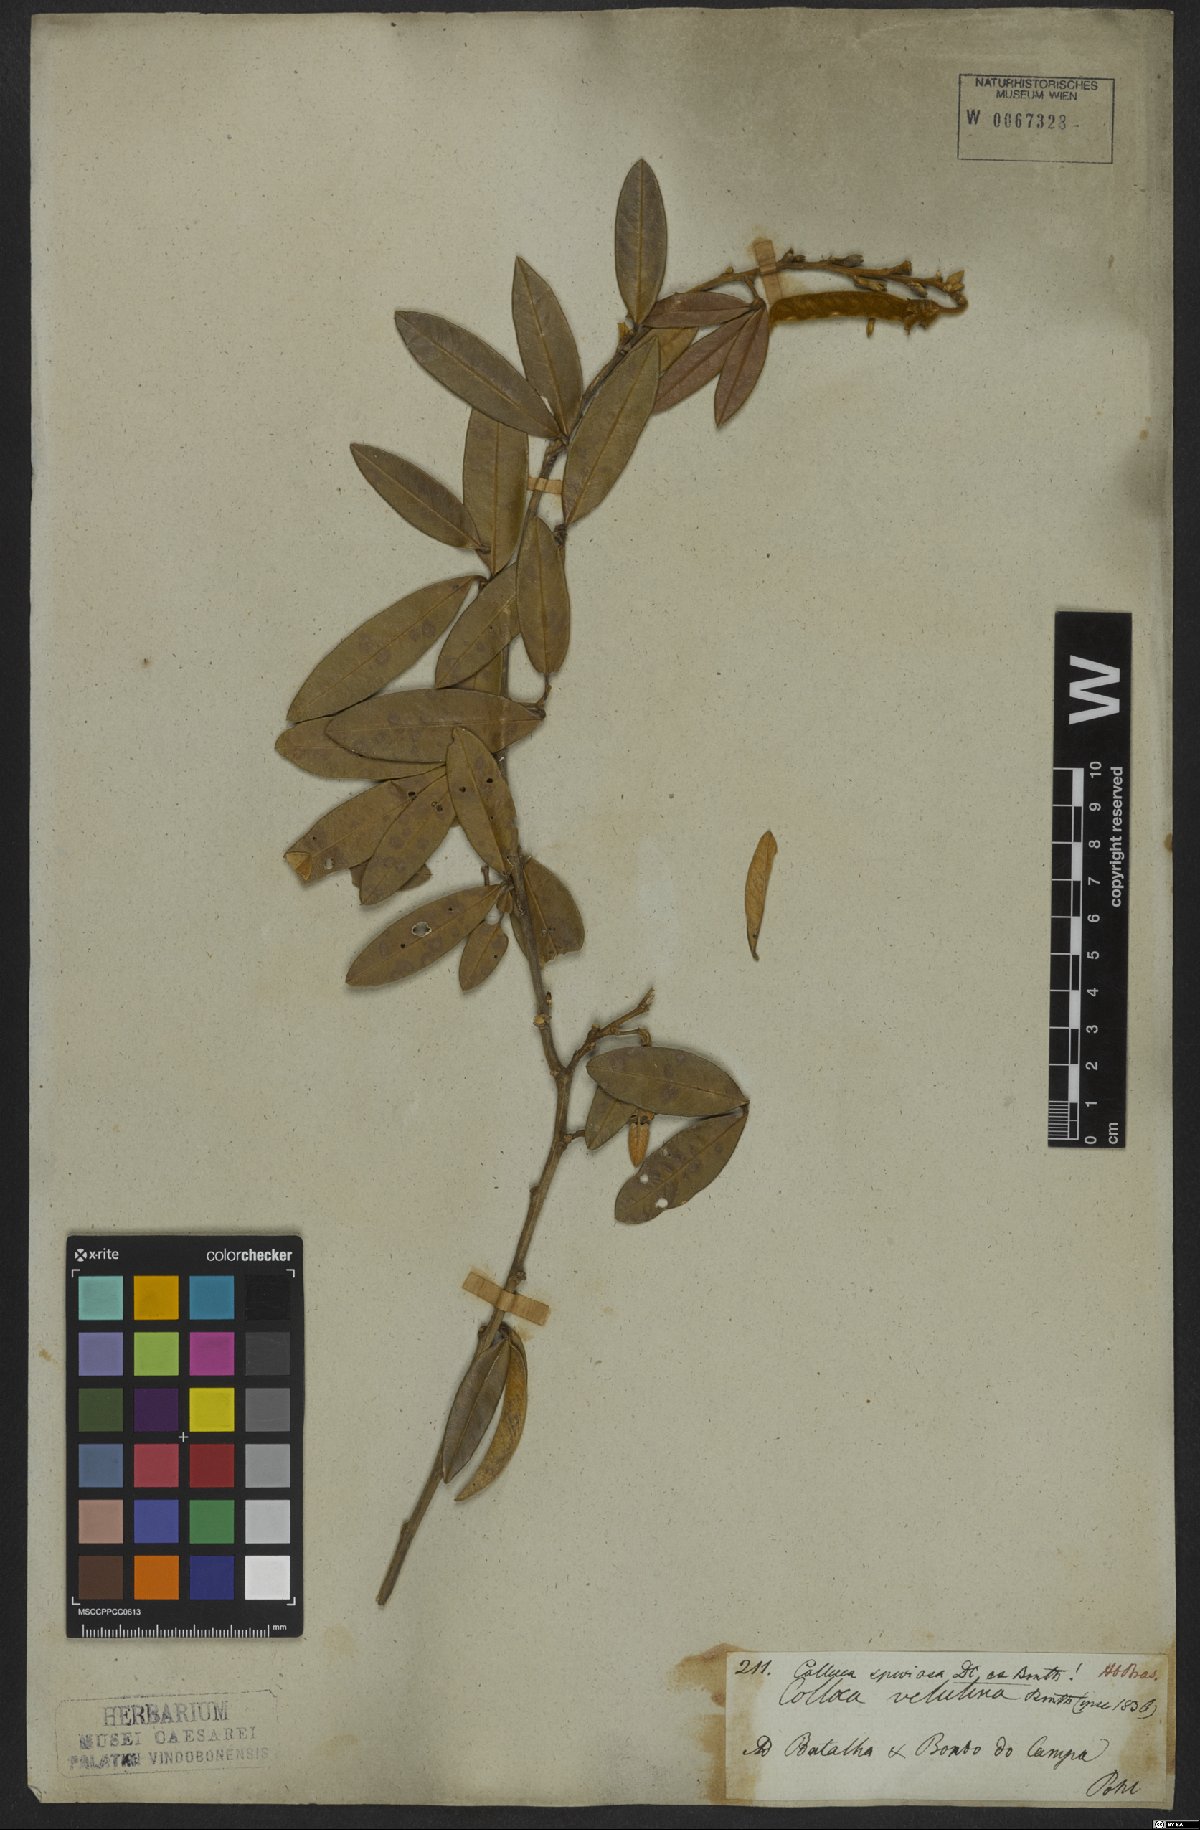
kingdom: Plantae
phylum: Tracheophyta
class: Magnoliopsida
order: Fabales
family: Fabaceae
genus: Collaea
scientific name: Collaea speciosa
